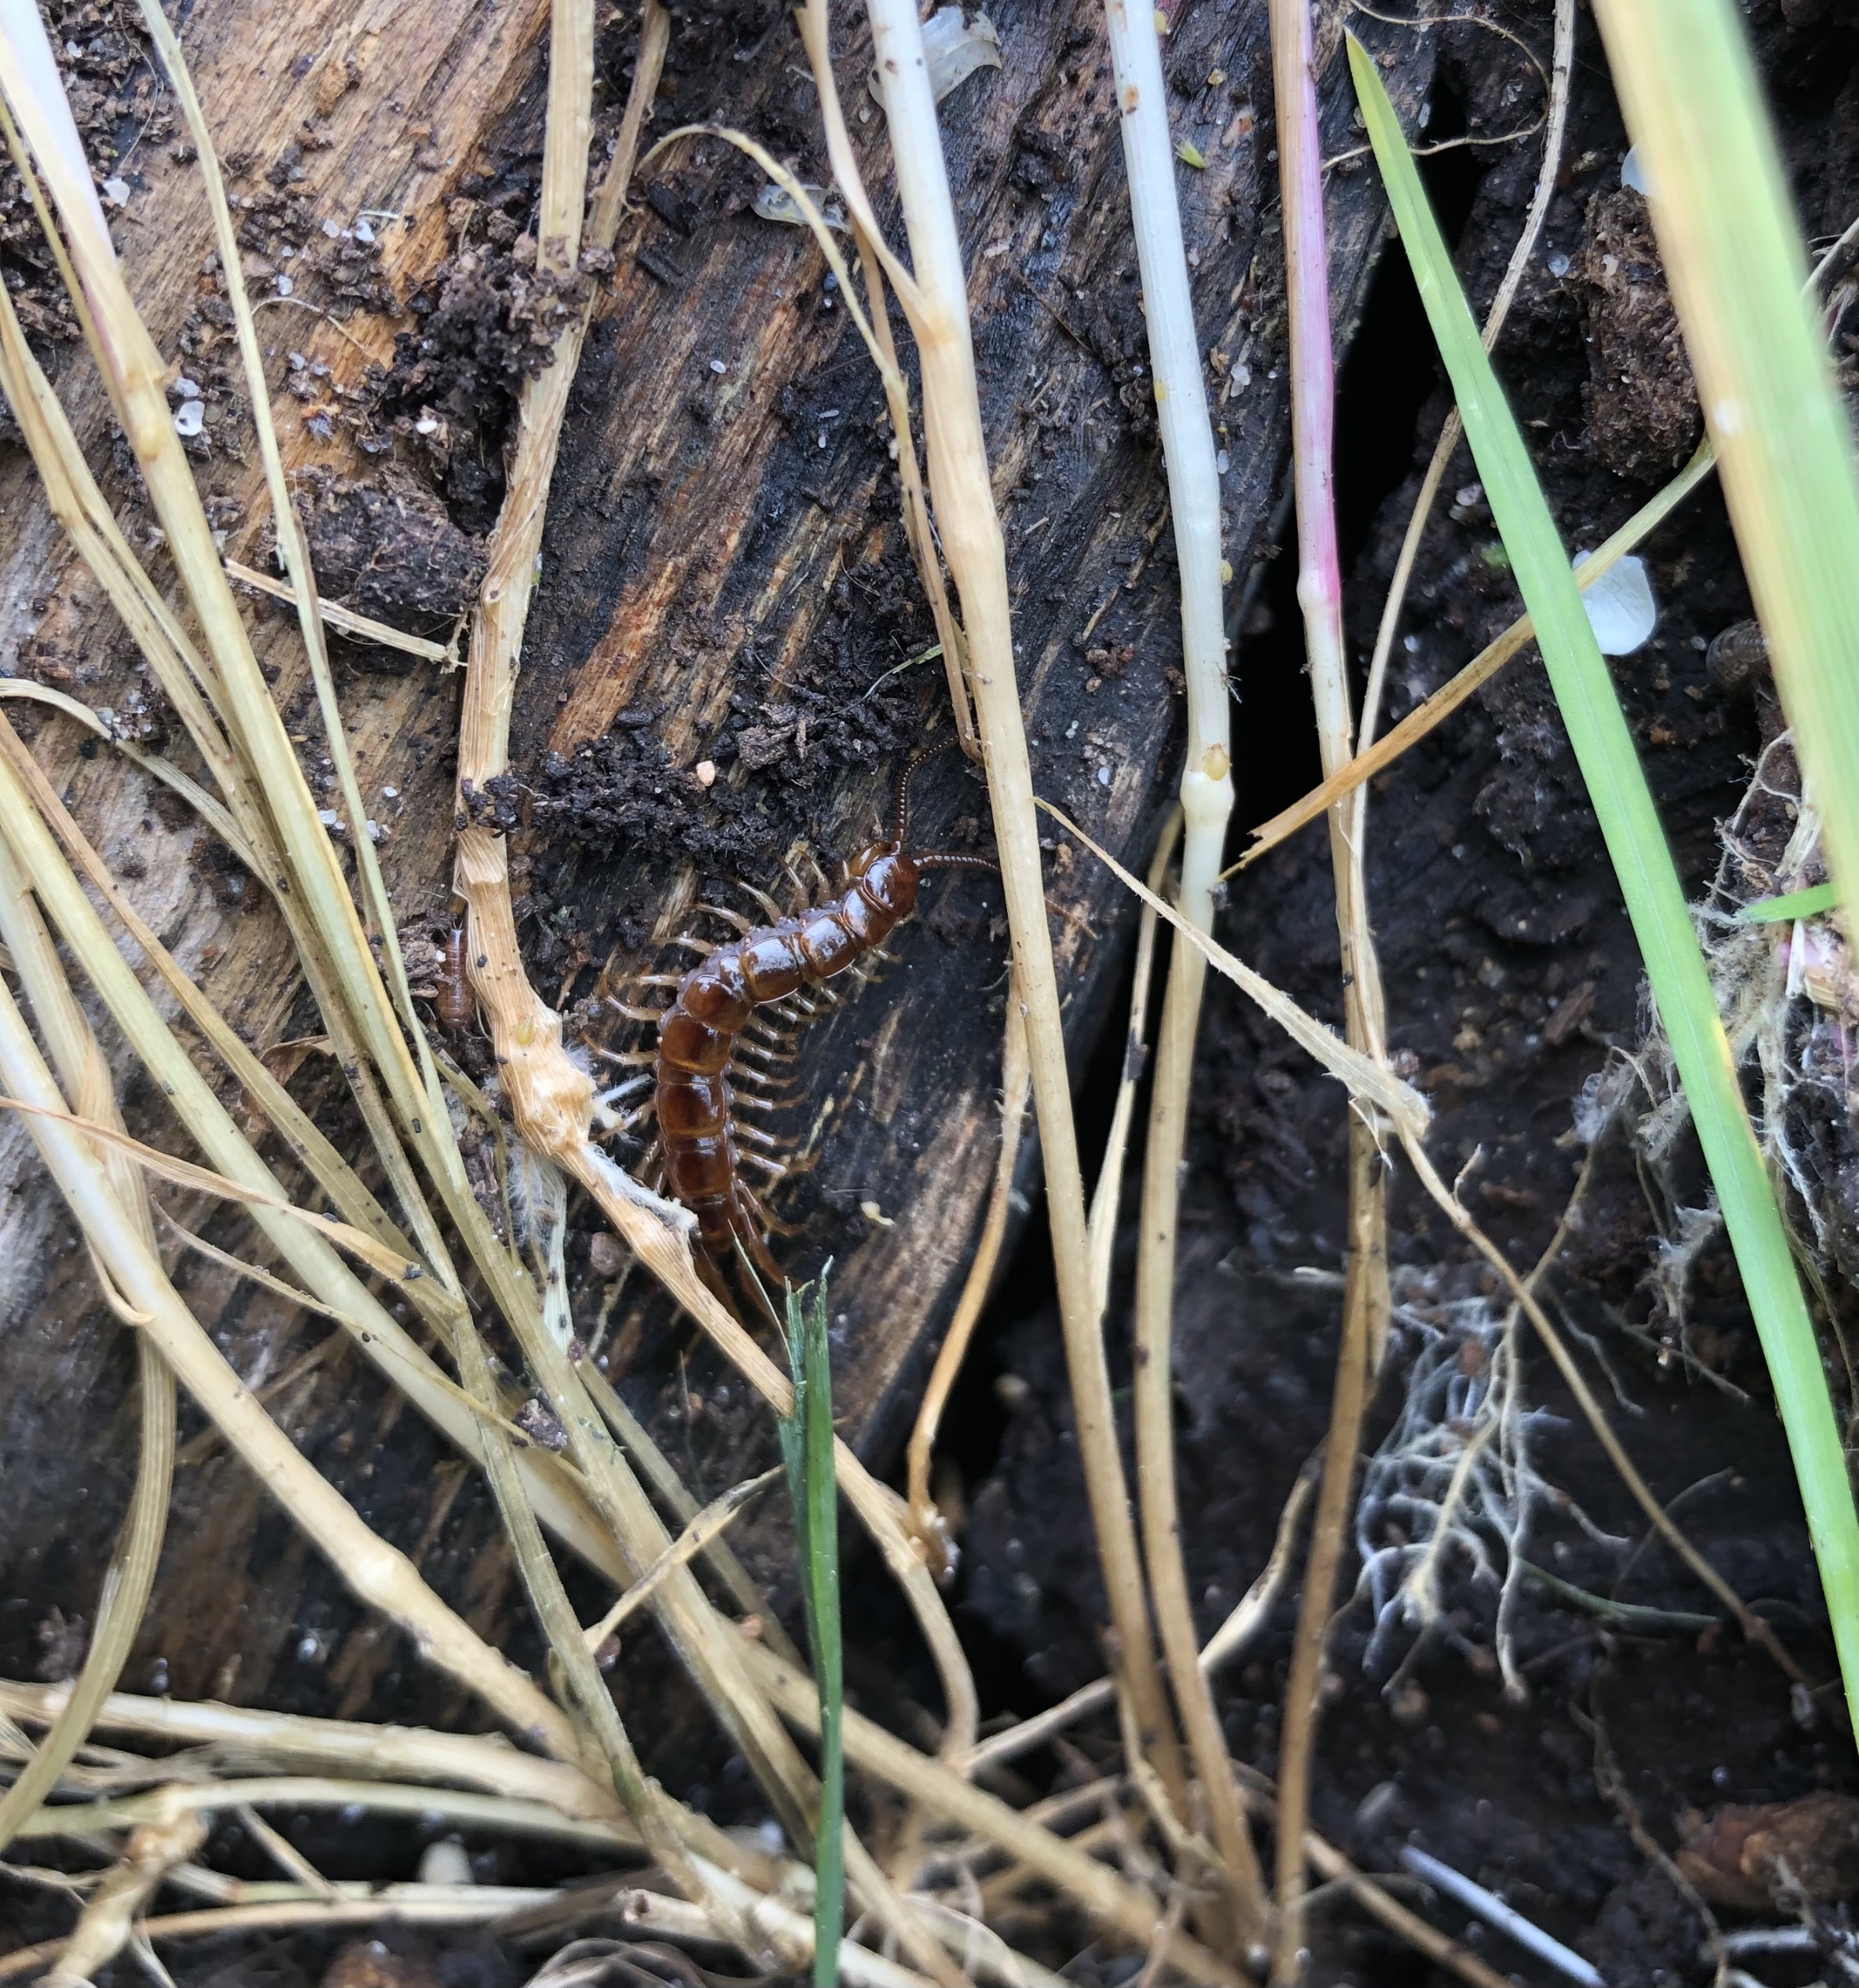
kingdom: Animalia
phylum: Arthropoda
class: Chilopoda
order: Lithobiomorpha
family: Lithobiidae
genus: Lithobius
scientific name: Lithobius forficatus
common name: Stenskolopender
